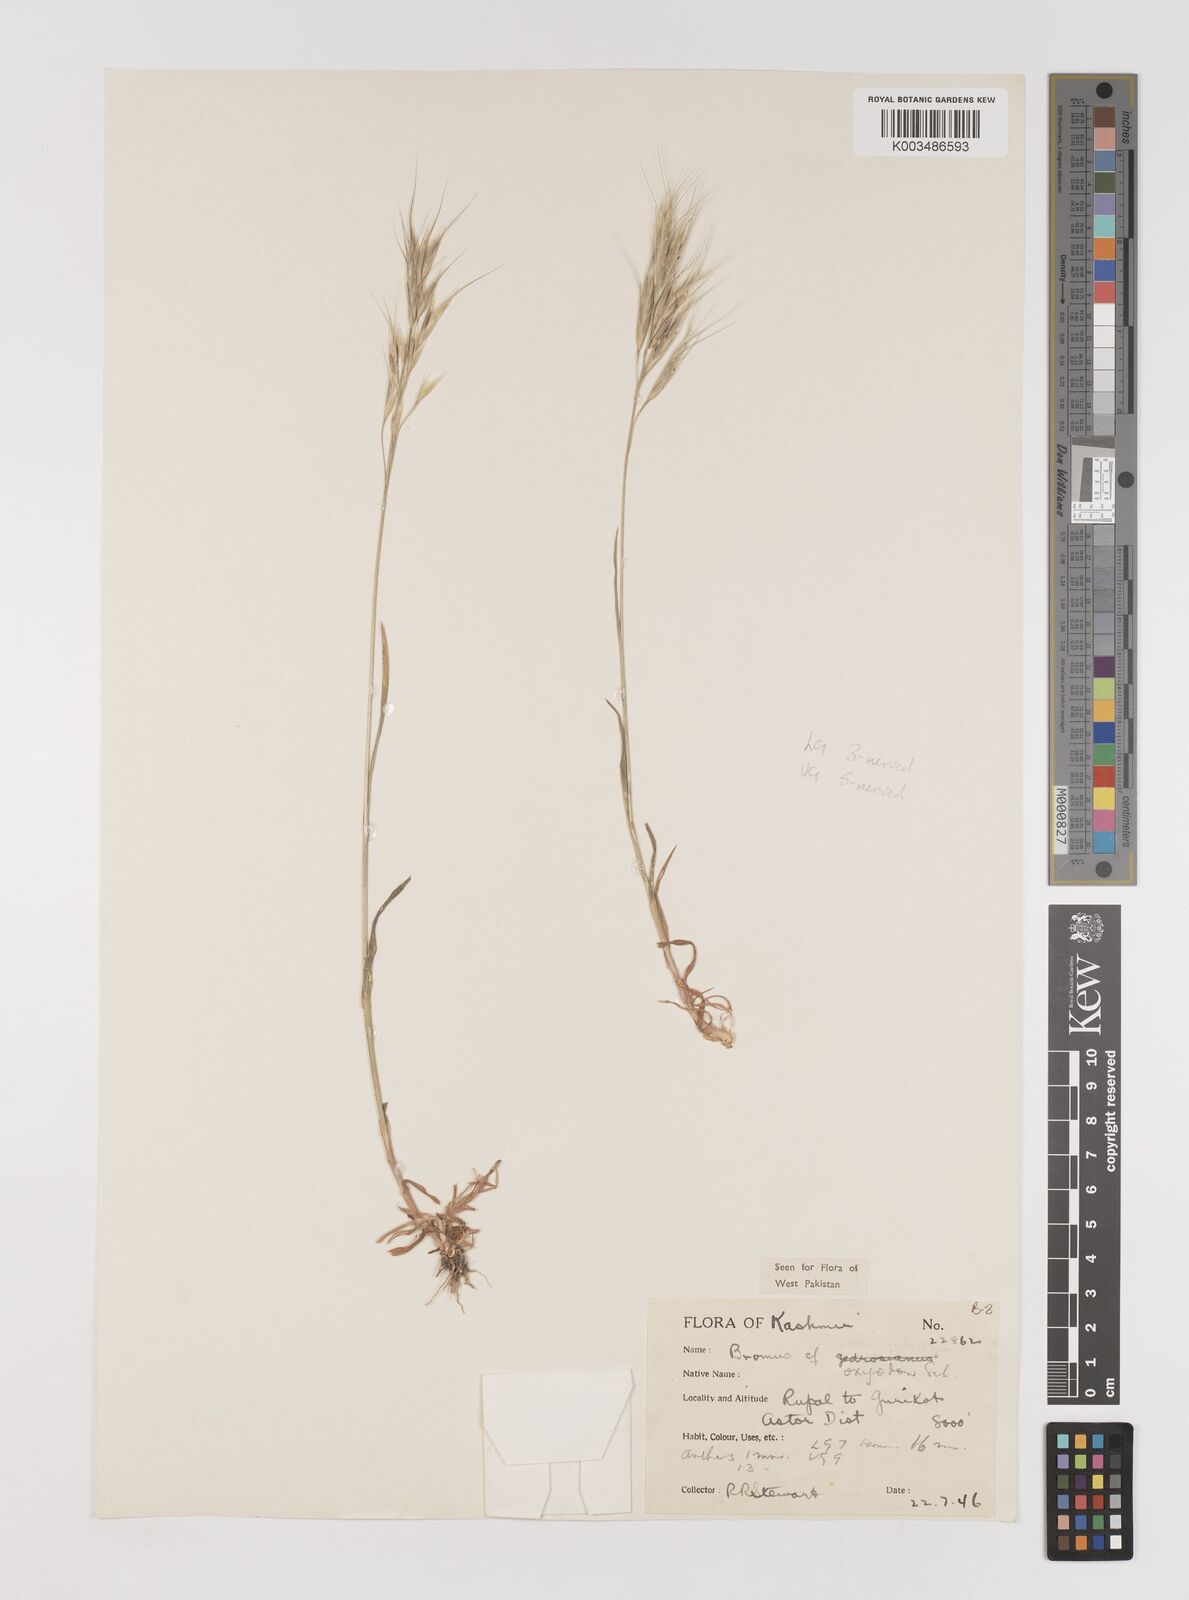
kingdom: Plantae
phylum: Tracheophyta
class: Liliopsida
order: Poales
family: Poaceae
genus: Bromus
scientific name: Bromus oxyodon
